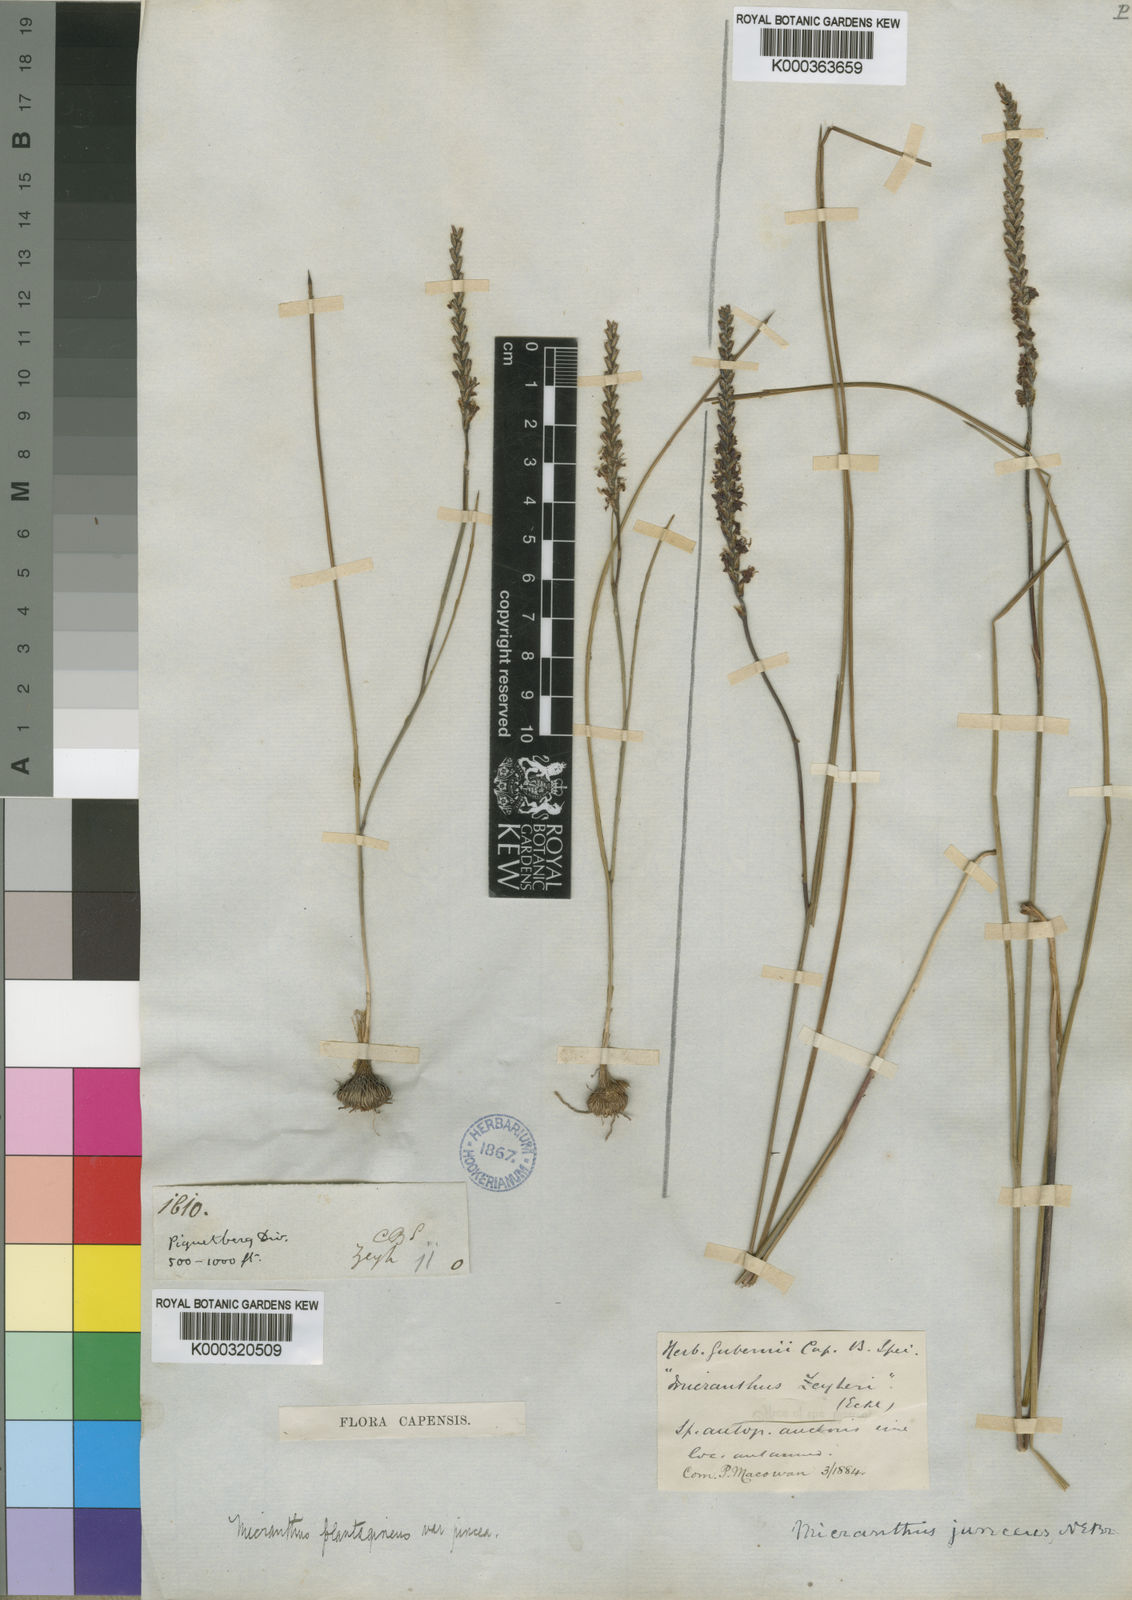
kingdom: Plantae
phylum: Tracheophyta
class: Liliopsida
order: Asparagales
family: Iridaceae
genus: Micranthus
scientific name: Micranthus plantagineus
